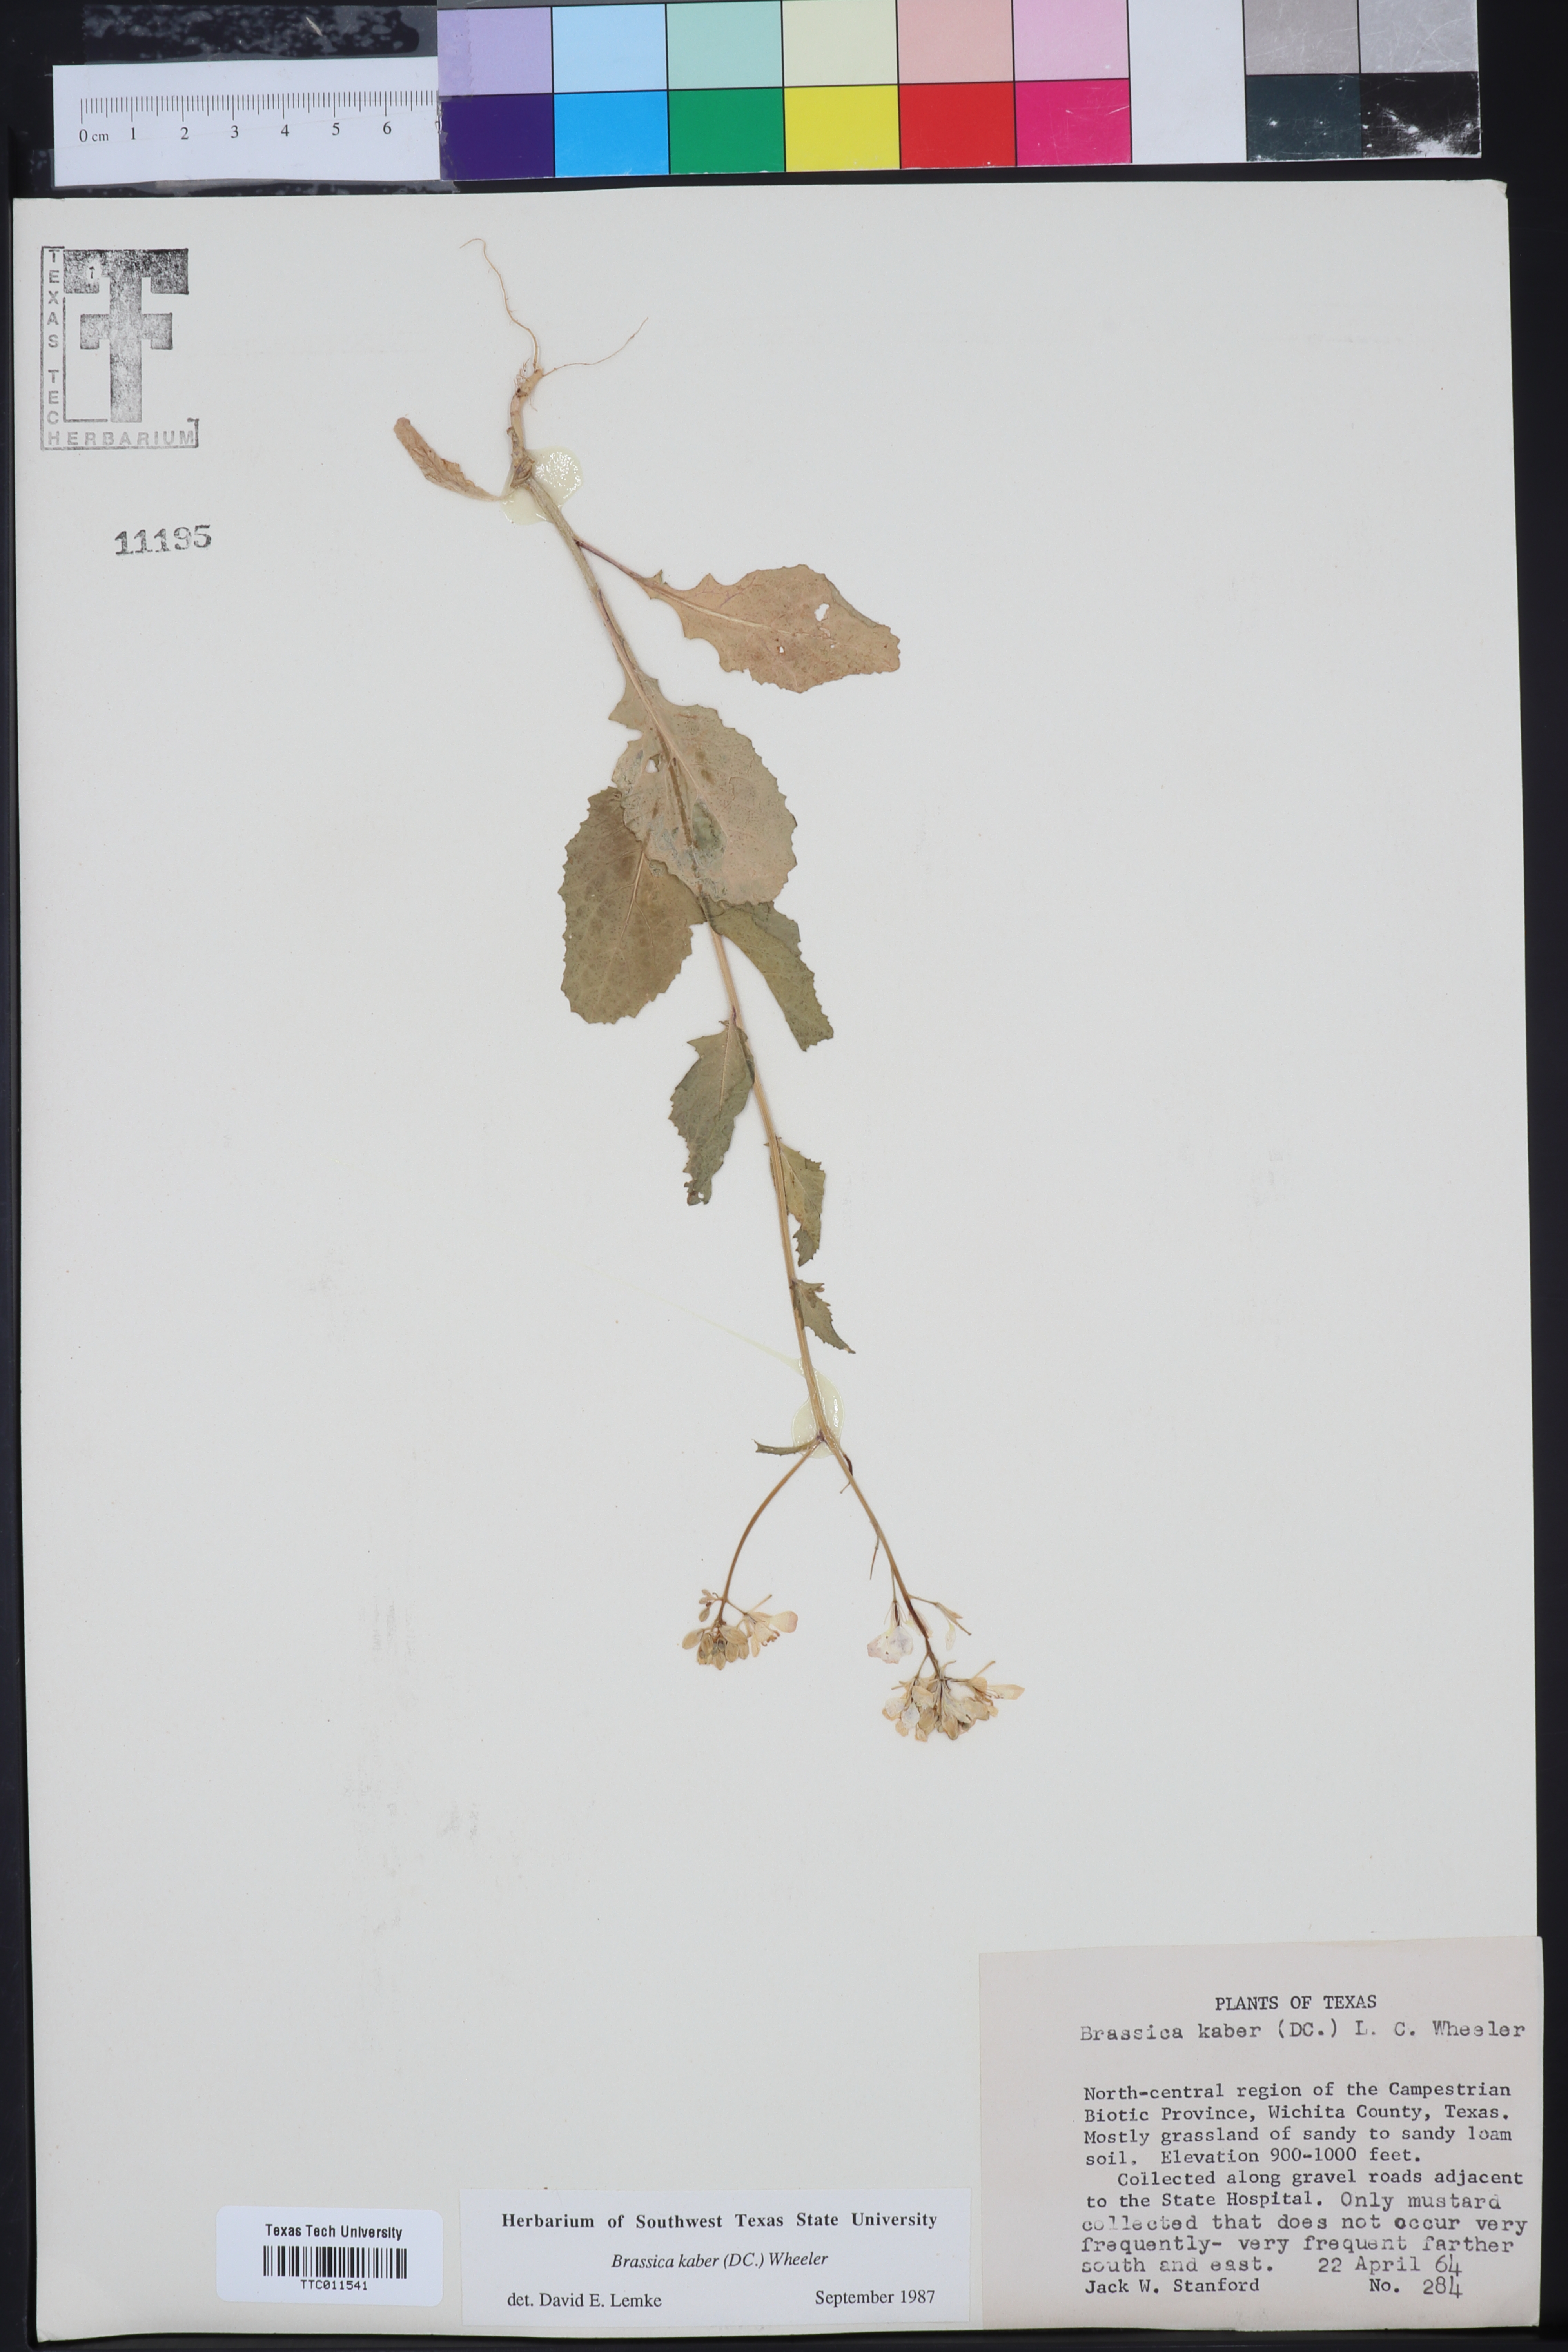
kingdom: Plantae
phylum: Tracheophyta
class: Magnoliopsida
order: Brassicales
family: Brassicaceae
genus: Sinapis
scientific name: Sinapis arvensis
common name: Charlock
